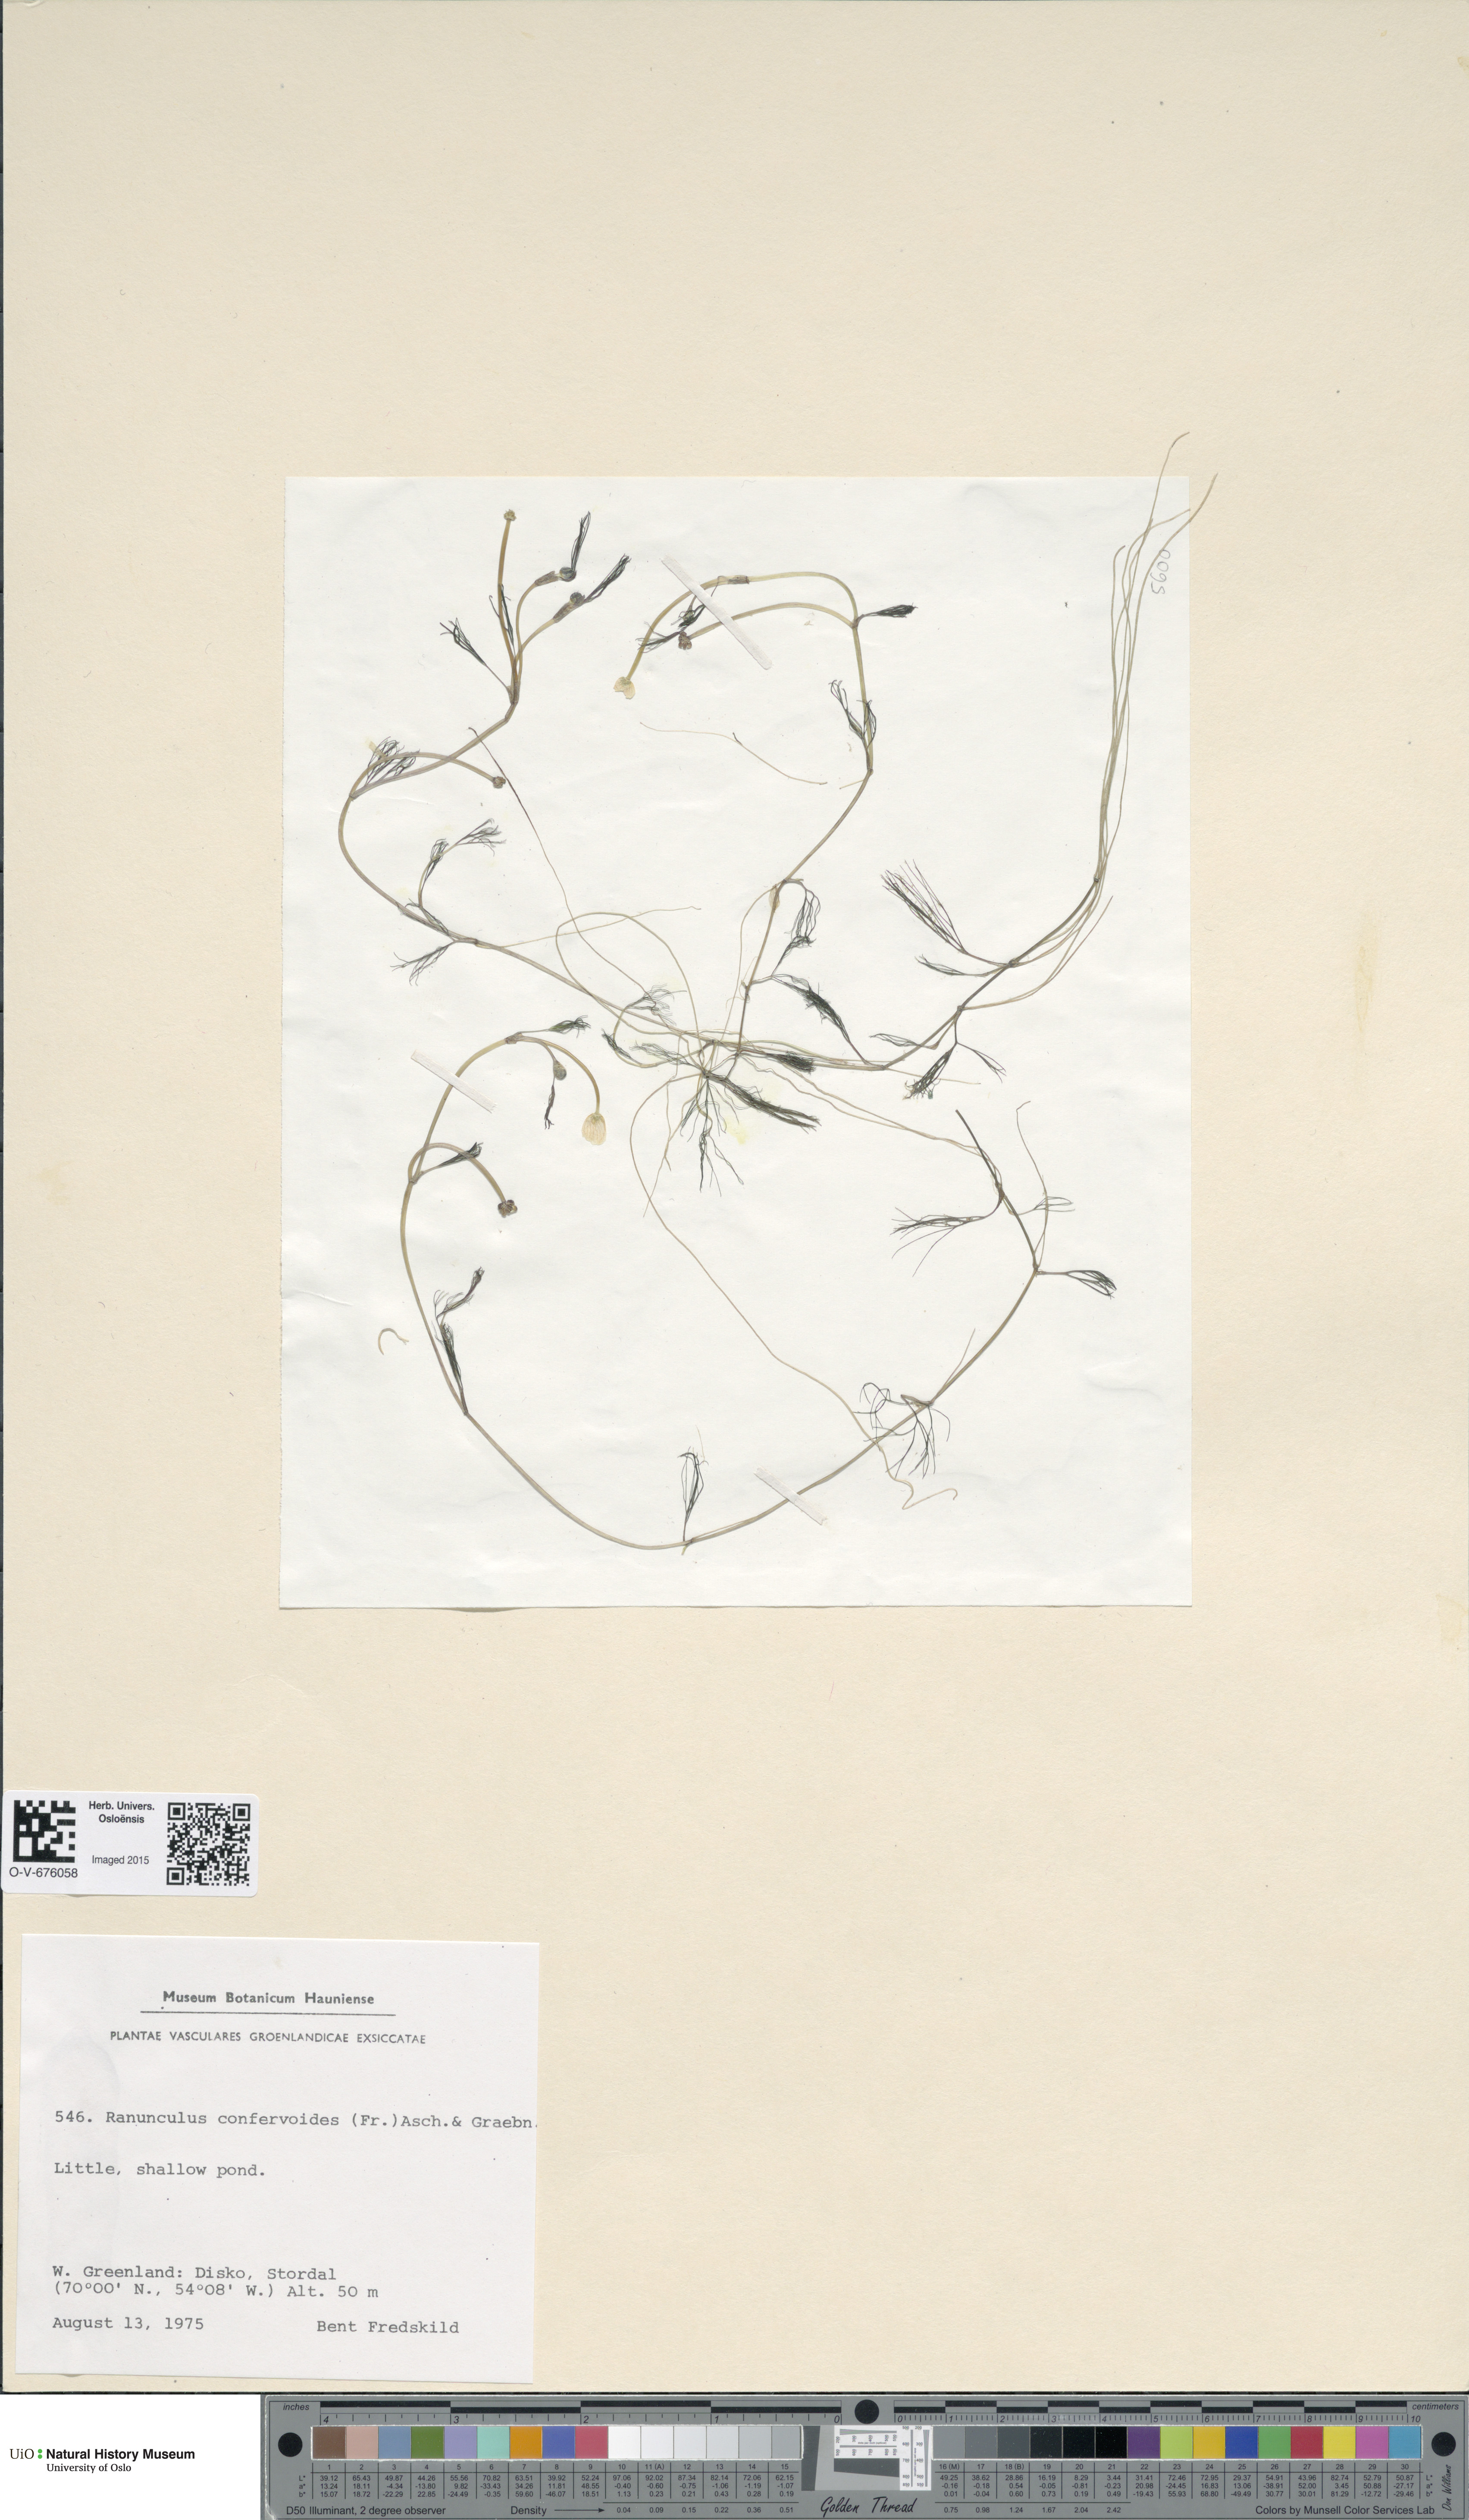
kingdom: Plantae
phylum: Tracheophyta
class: Magnoliopsida
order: Ranunculales
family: Ranunculaceae
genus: Ranunculus
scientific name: Ranunculus confervoides
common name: Delicate buttercup
